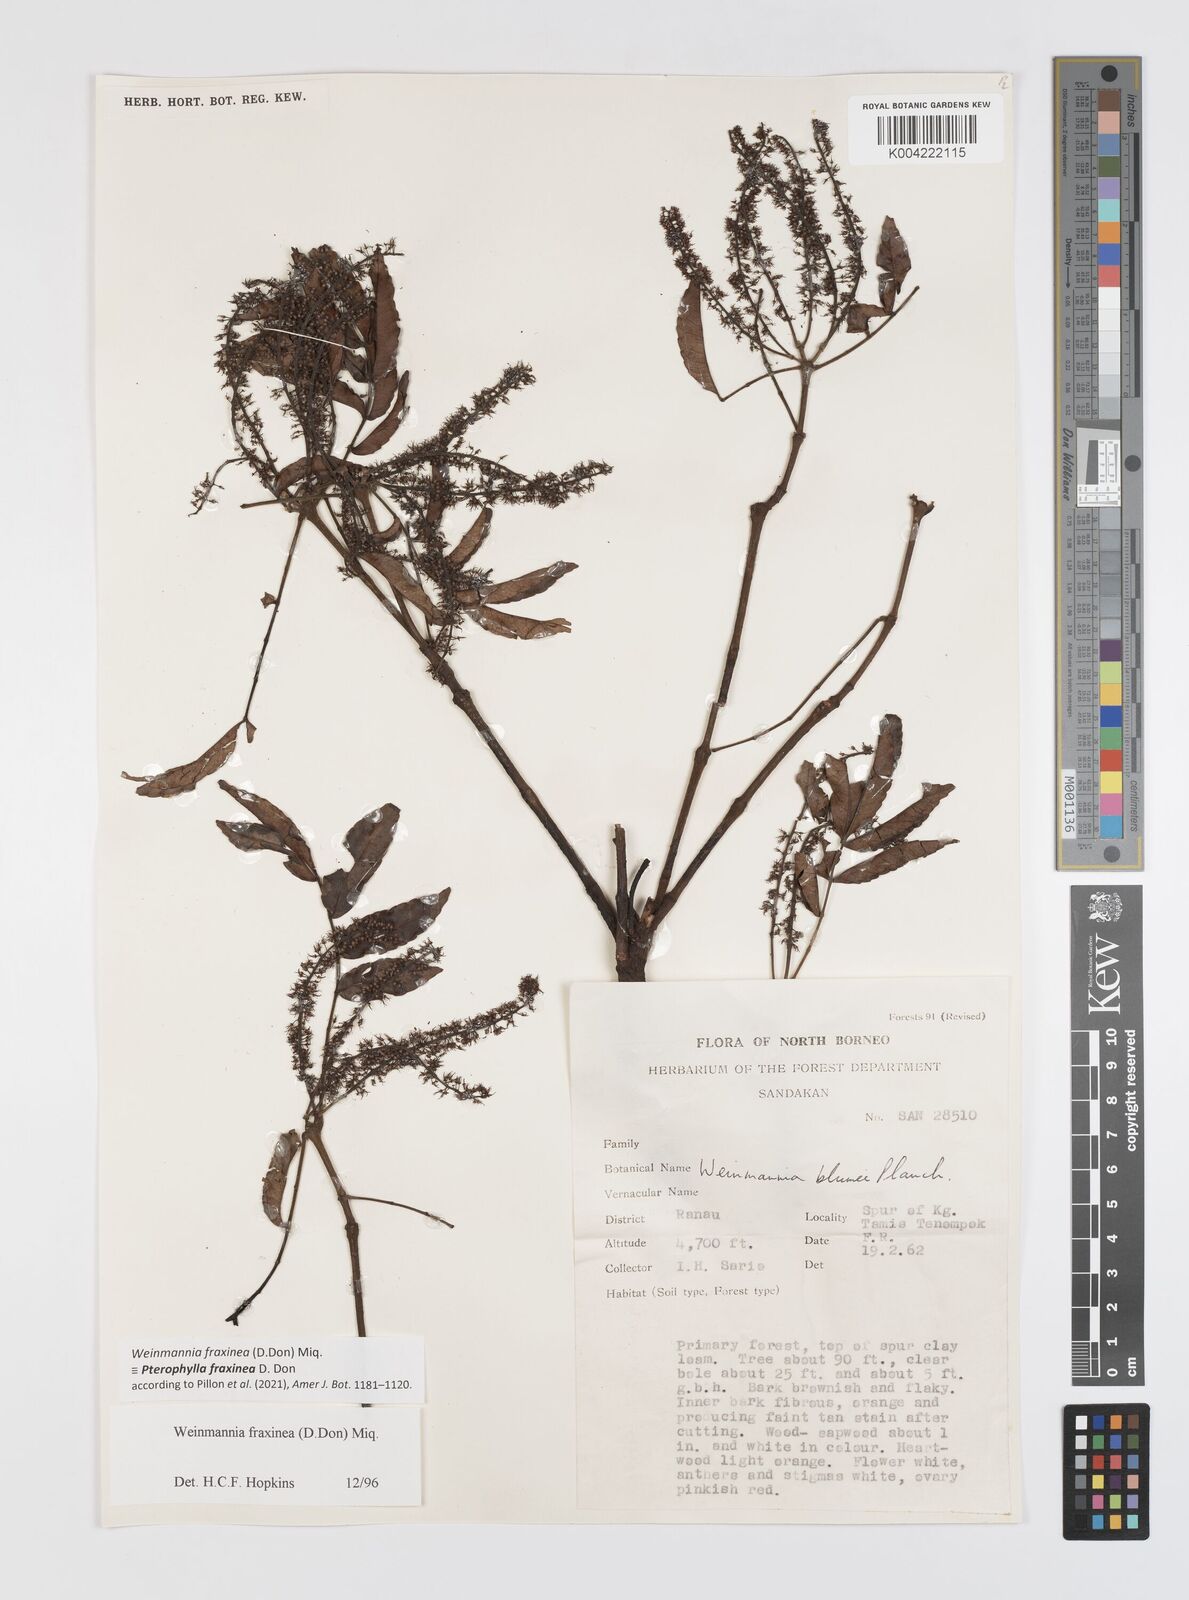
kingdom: Plantae
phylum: Tracheophyta
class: Magnoliopsida
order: Oxalidales
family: Cunoniaceae
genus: Pterophylla
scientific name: Pterophylla fraxinea
